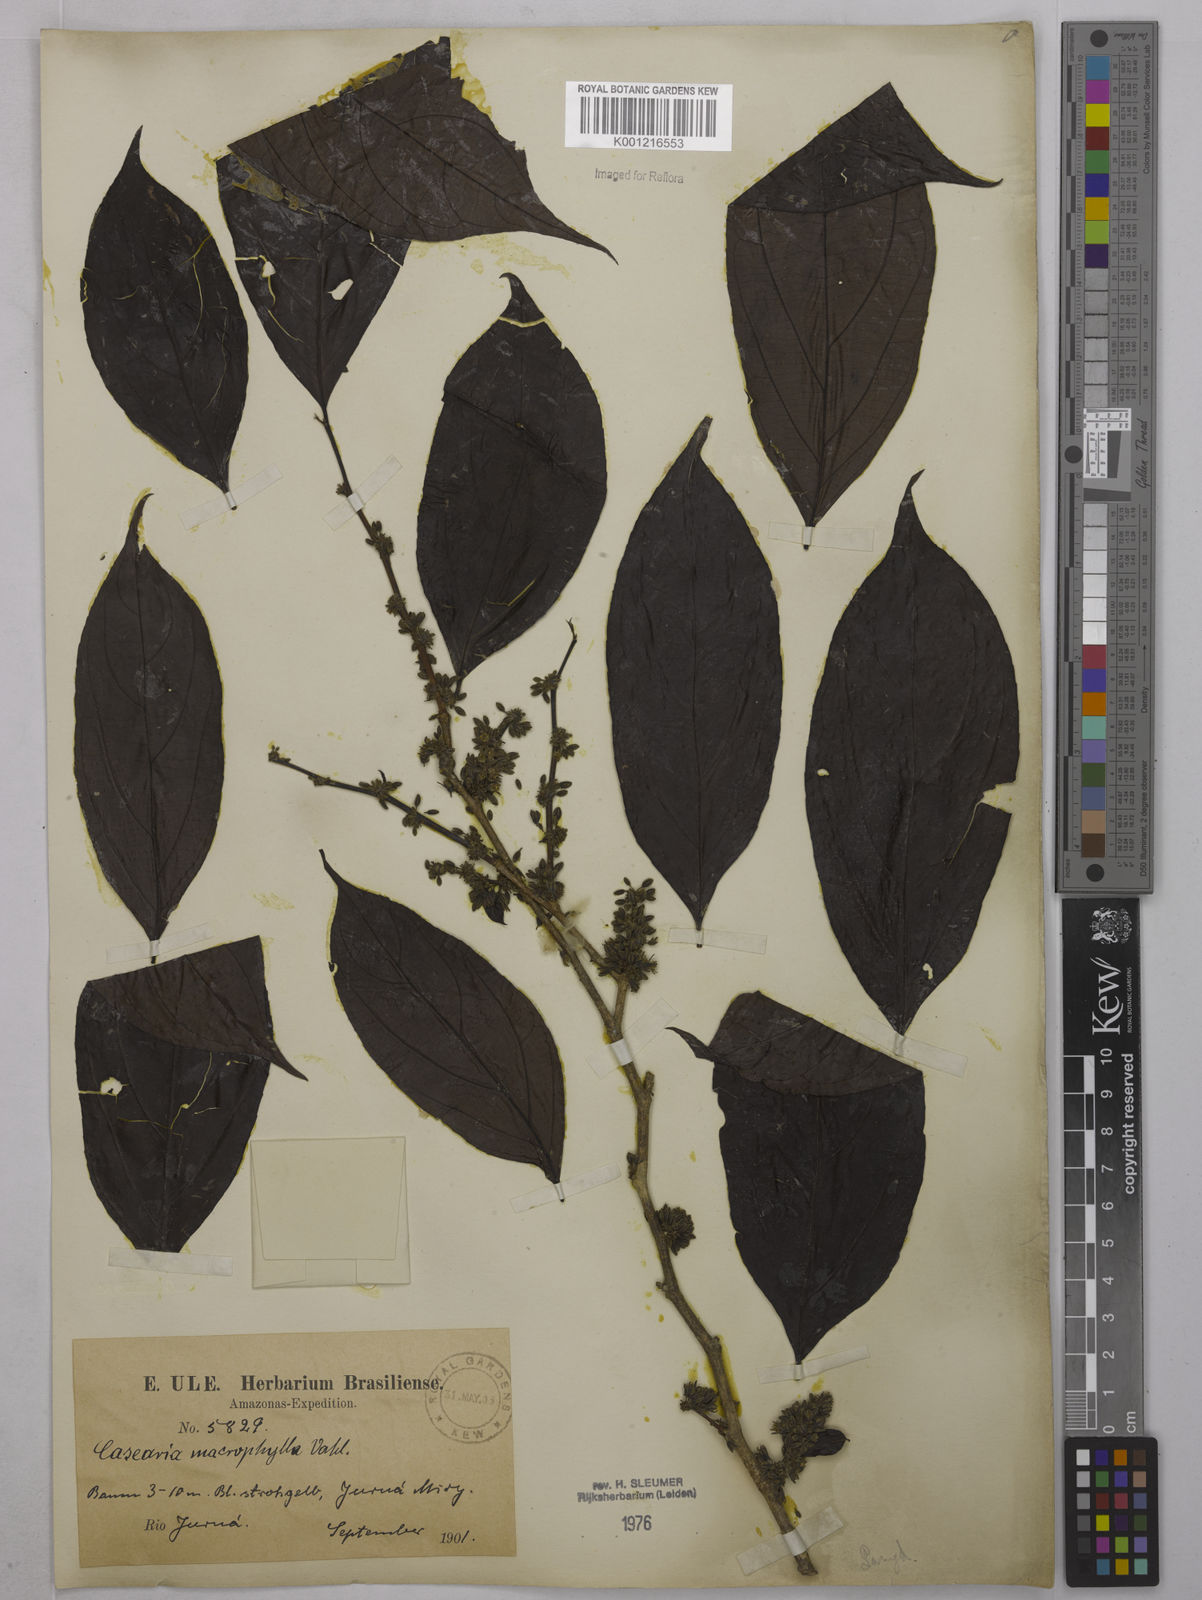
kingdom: Plantae
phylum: Tracheophyta
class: Magnoliopsida
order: Malpighiales
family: Salicaceae
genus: Casearia
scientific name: Casearia pitumba
